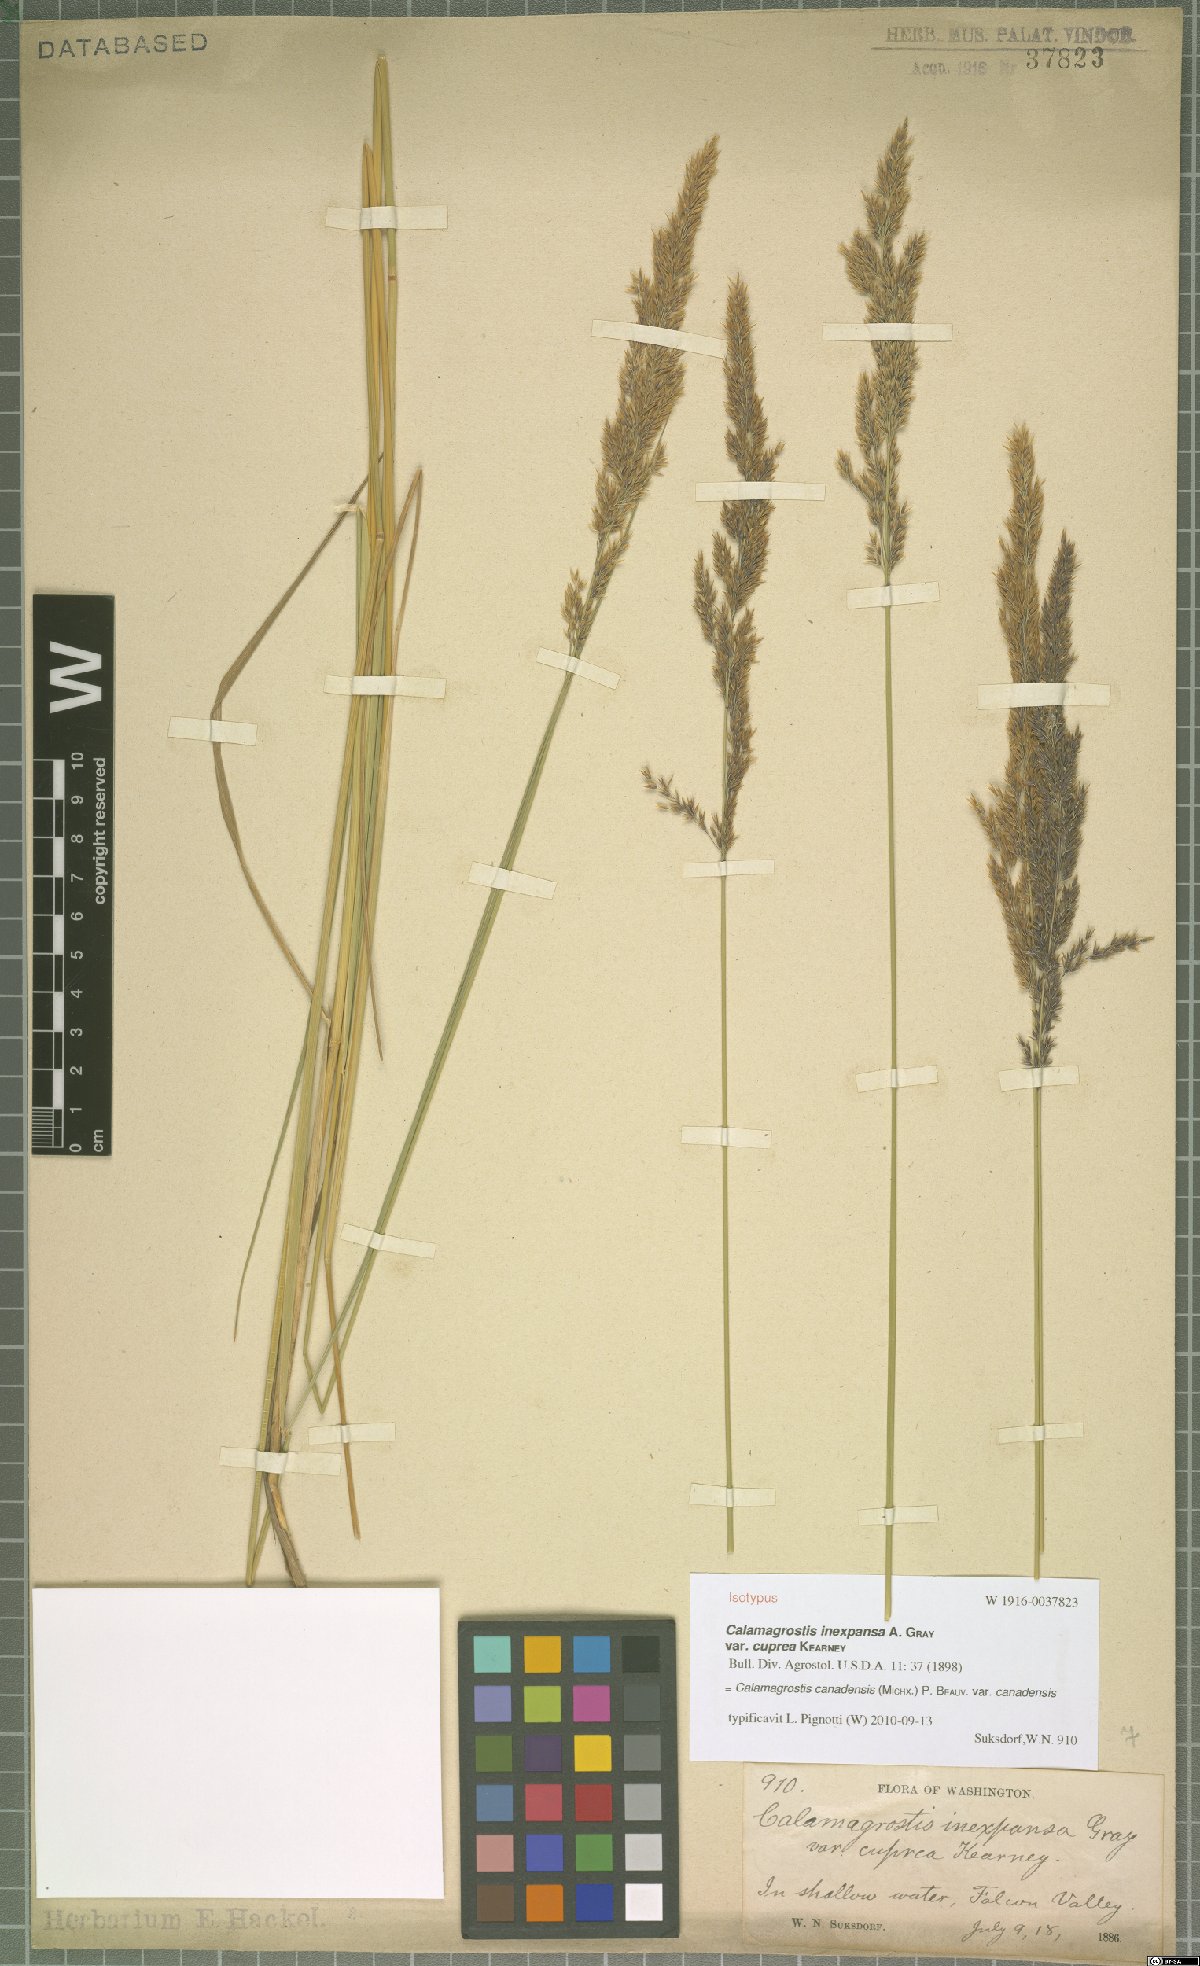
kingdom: Plantae
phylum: Tracheophyta
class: Liliopsida
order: Poales
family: Poaceae
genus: Calamagrostis
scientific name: Calamagrostis inexpansa
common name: Northern reedgrass
